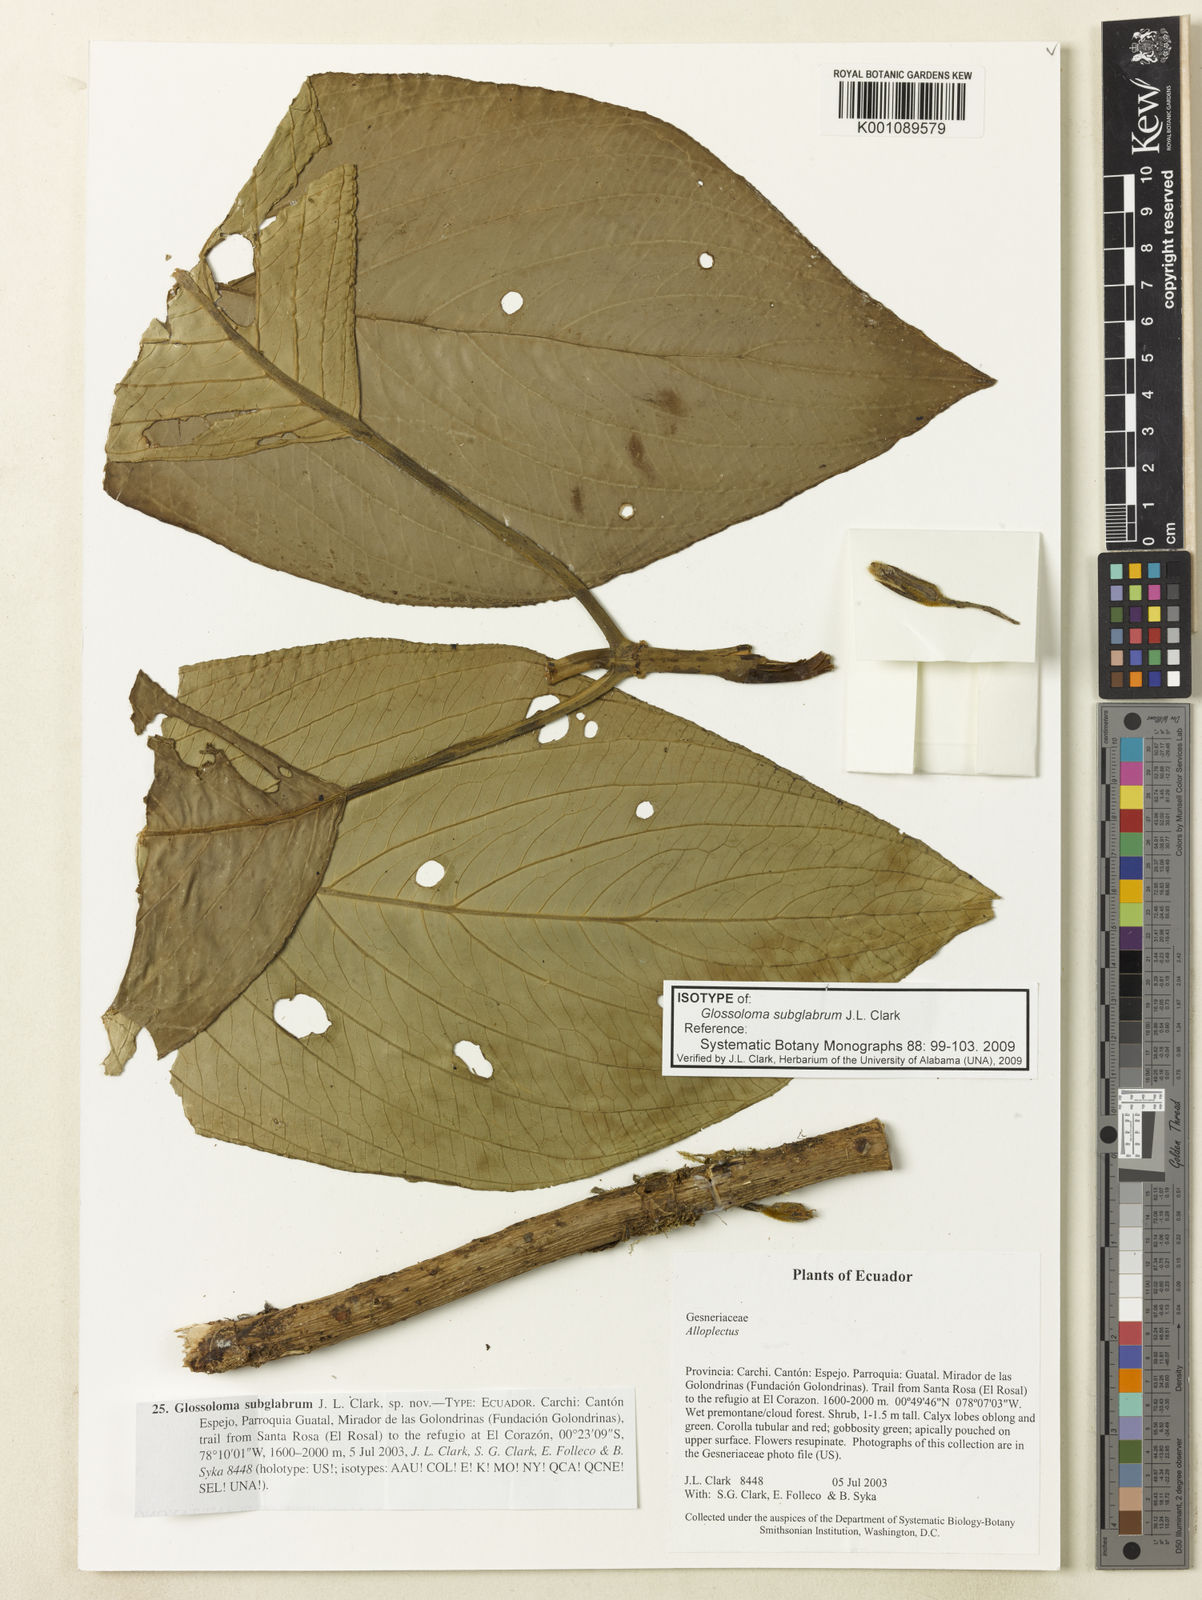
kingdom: Plantae
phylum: Tracheophyta
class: Magnoliopsida
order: Lamiales
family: Gesneriaceae
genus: Glossoloma
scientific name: Glossoloma subglabrum
